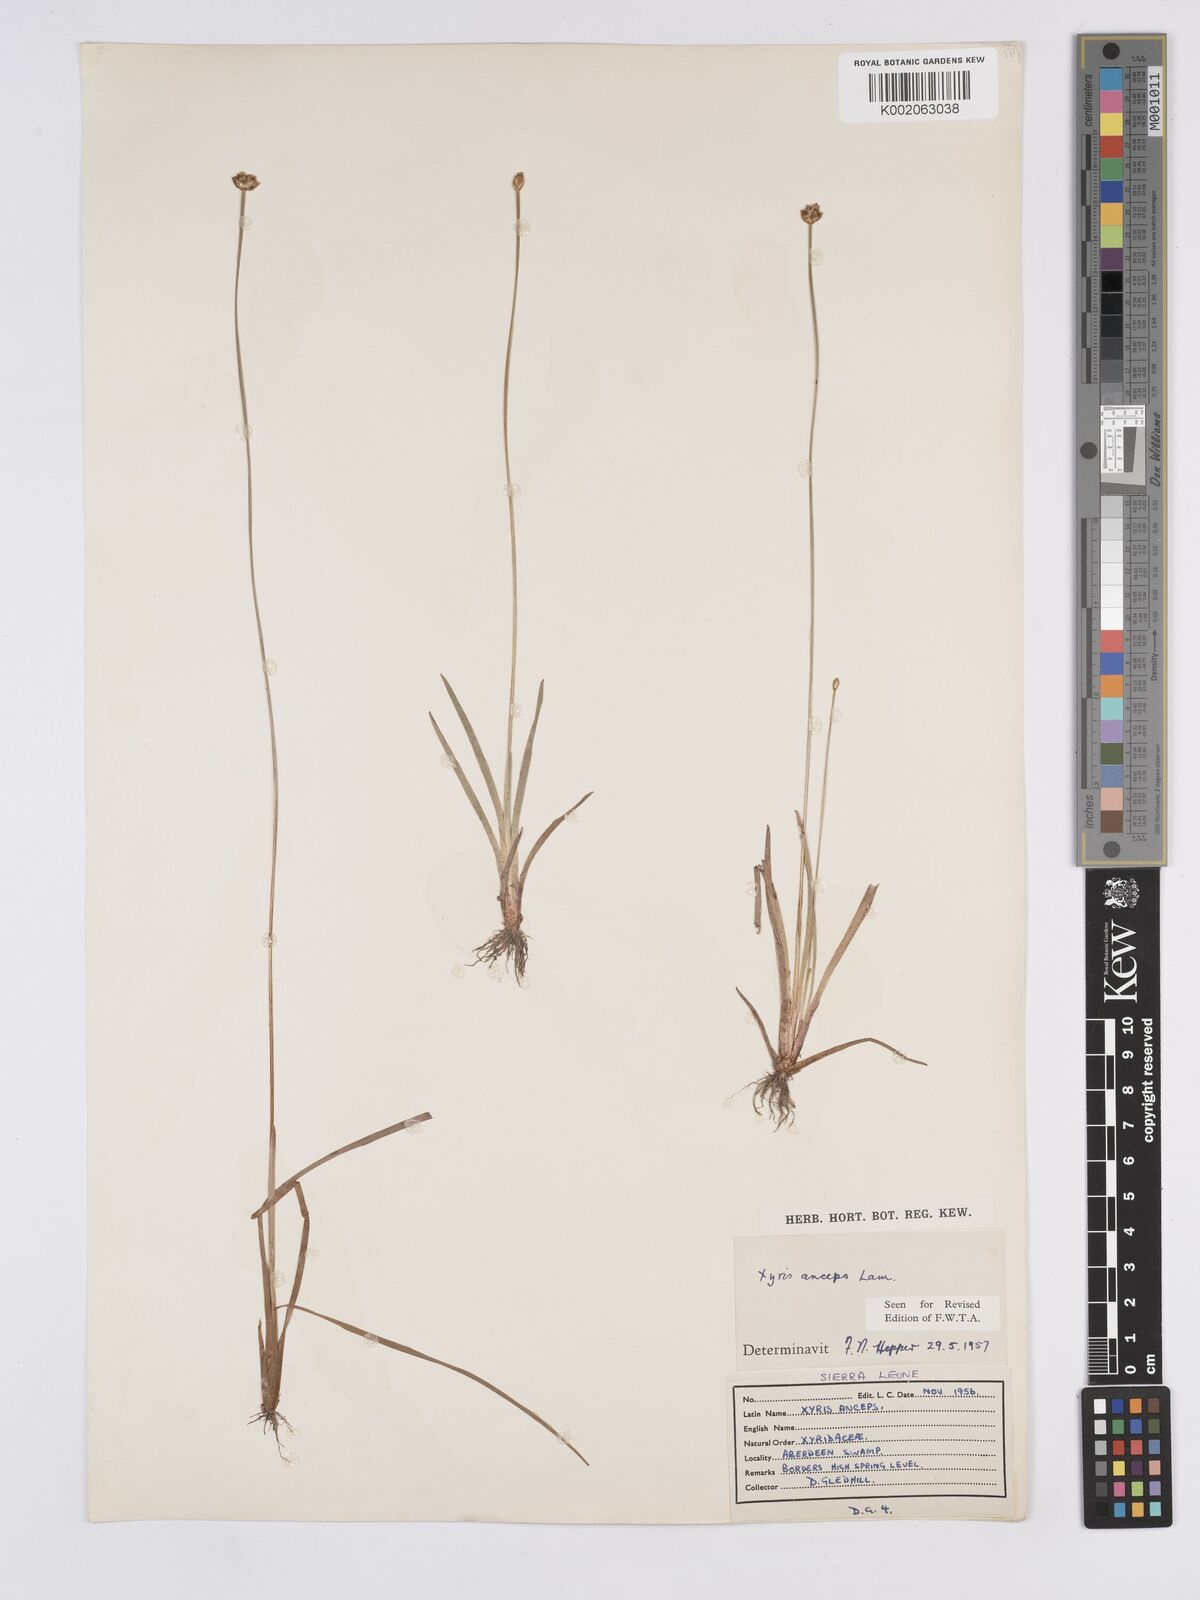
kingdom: Plantae
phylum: Tracheophyta
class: Liliopsida
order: Poales
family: Xyridaceae
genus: Xyris
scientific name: Xyris anceps
